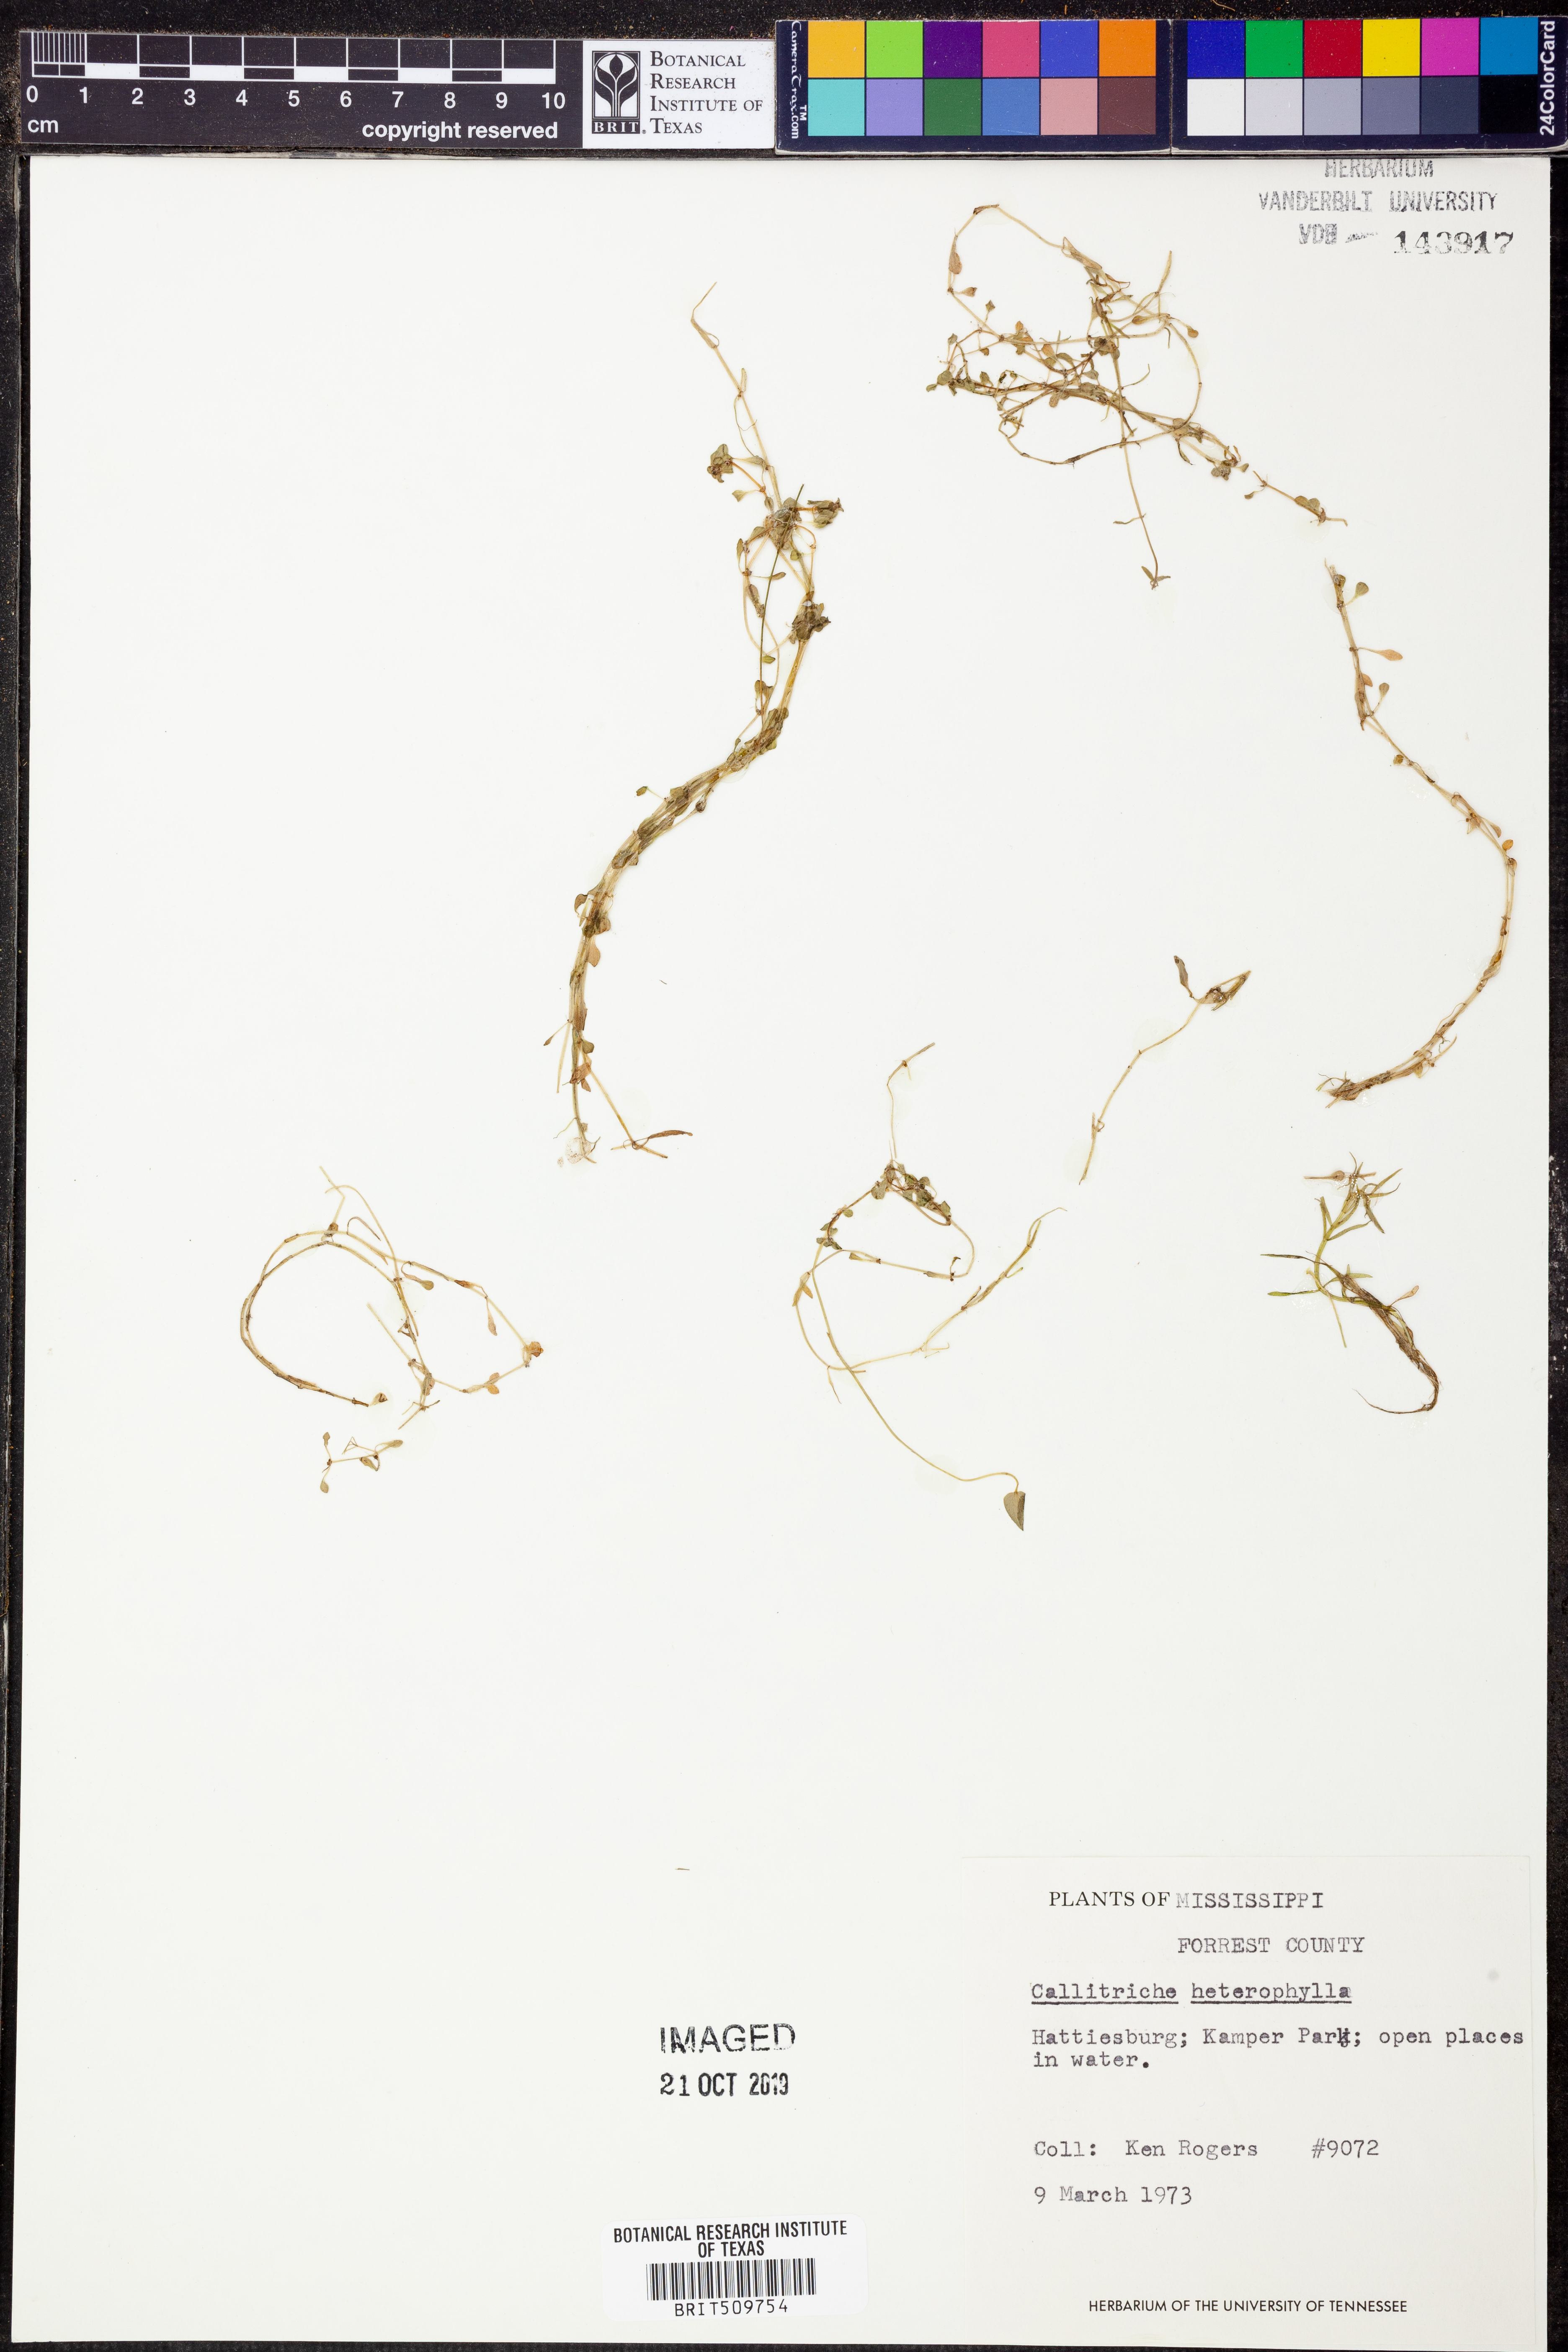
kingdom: Plantae
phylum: Tracheophyta
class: Magnoliopsida
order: Lamiales
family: Plantaginaceae
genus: Callitriche
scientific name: Callitriche heterophylla
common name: Two-headed water-starwort
